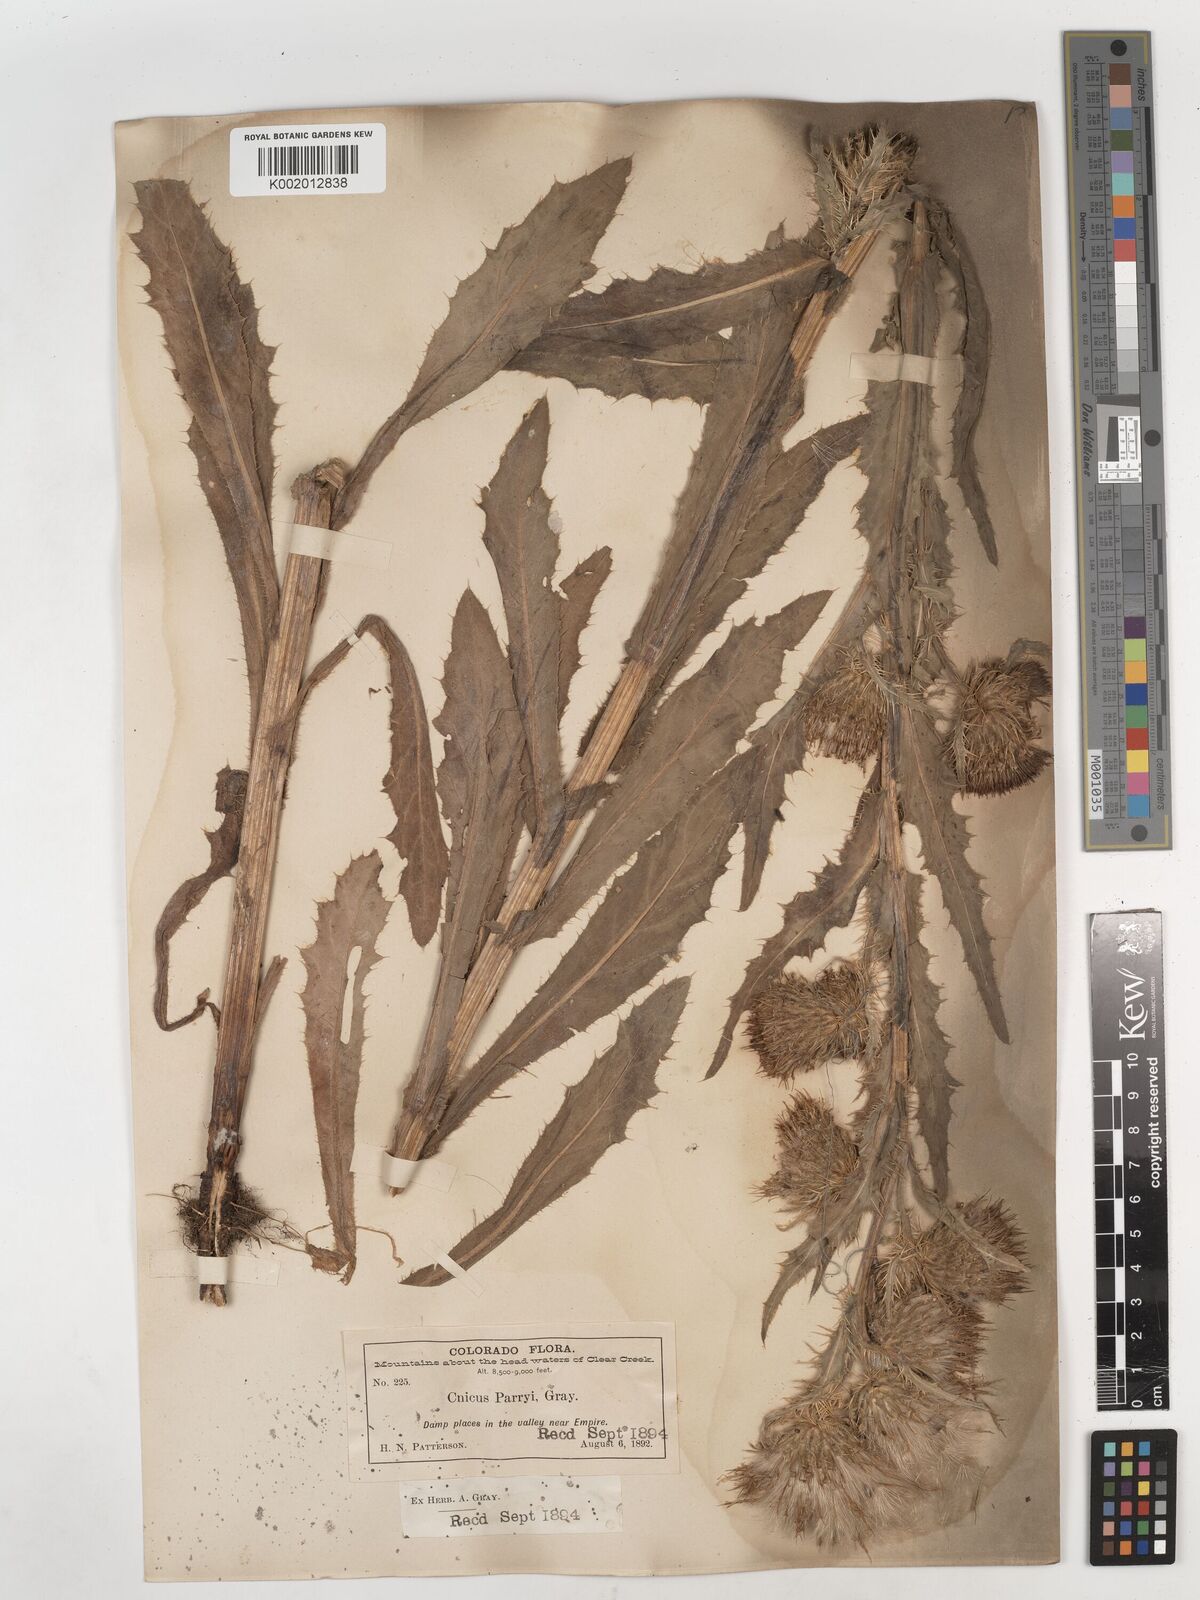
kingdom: Plantae
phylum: Tracheophyta
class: Magnoliopsida
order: Asterales
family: Asteraceae
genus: Cirsium
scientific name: Cirsium parryi
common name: Parry's thistle
